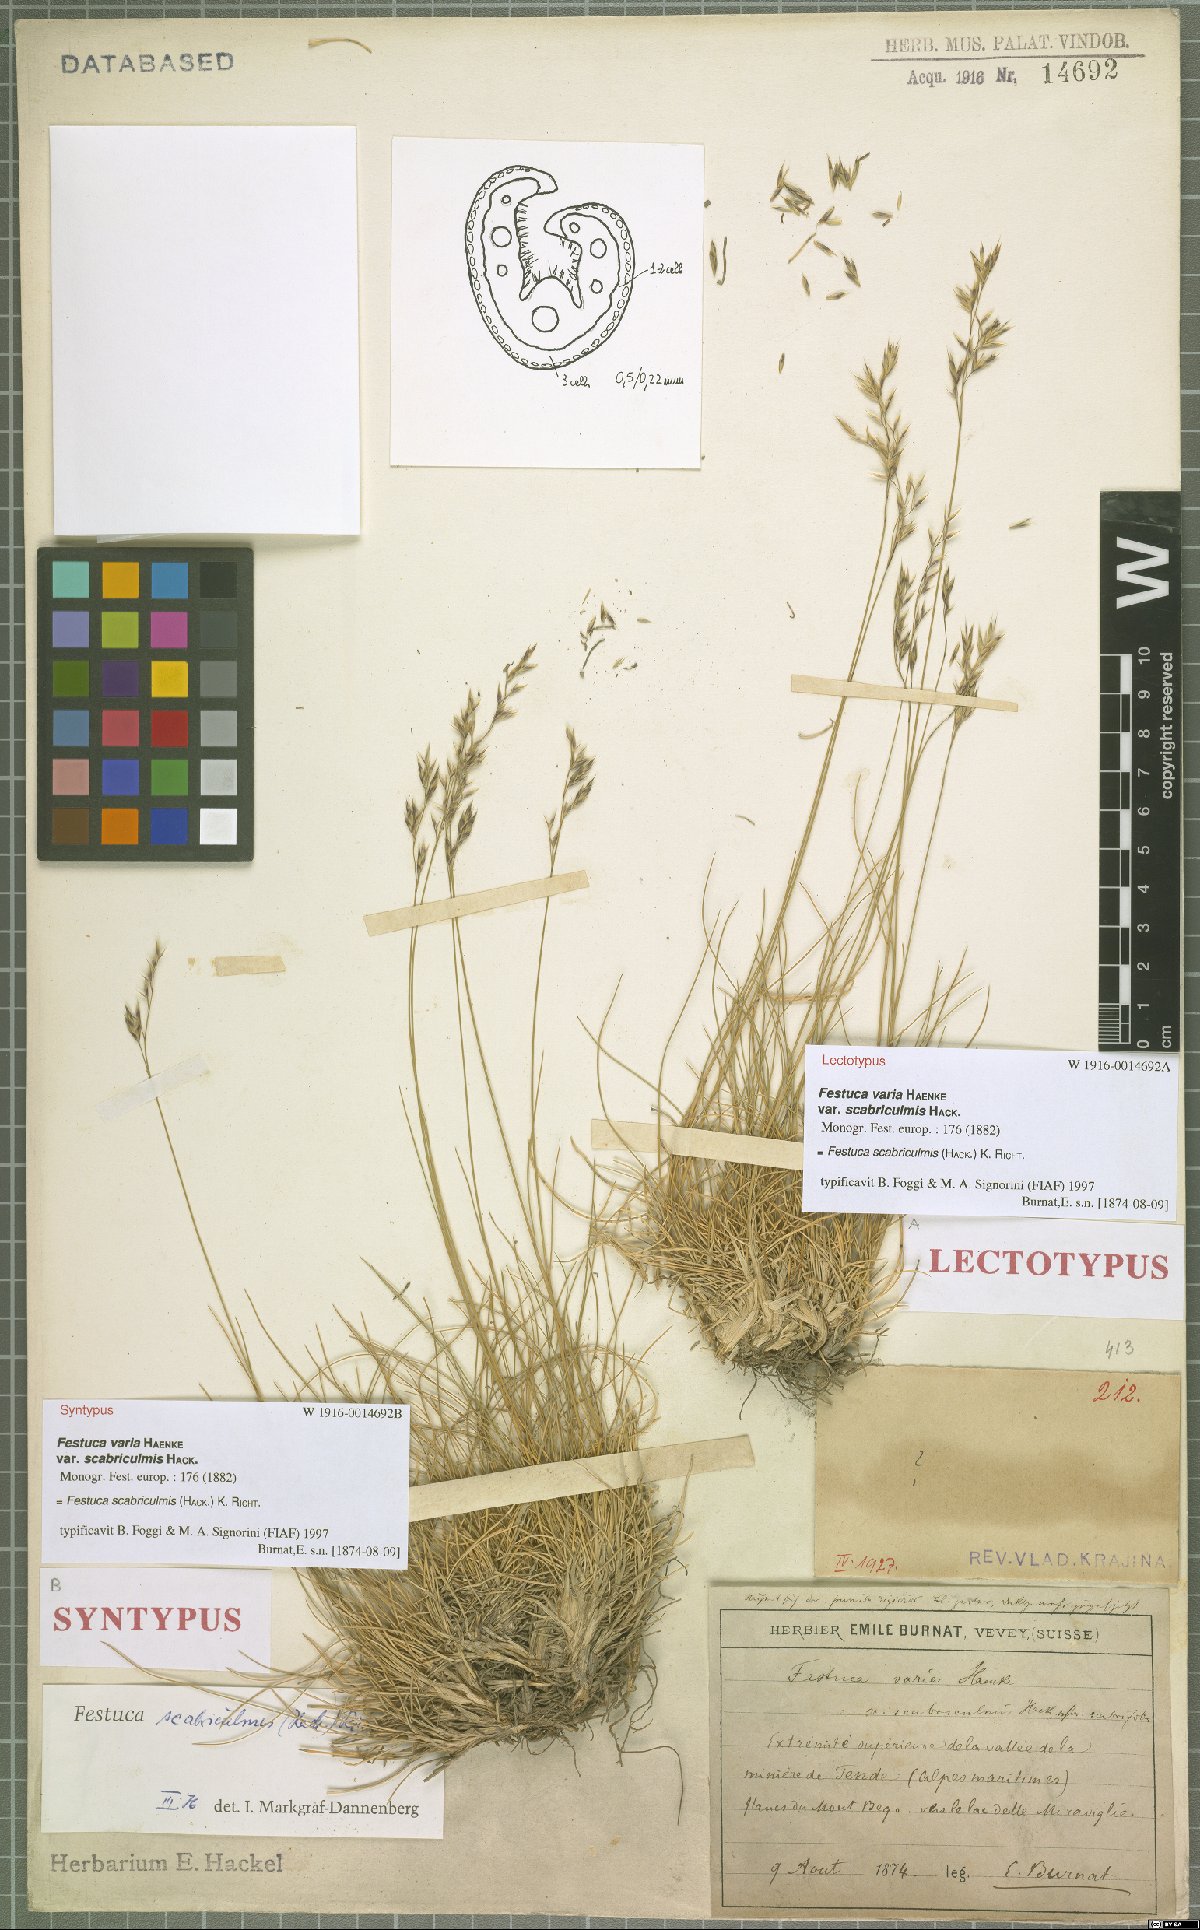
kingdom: Plantae
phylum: Tracheophyta
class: Liliopsida
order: Poales
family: Poaceae
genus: Festuca
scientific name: Festuca scabriculmis
